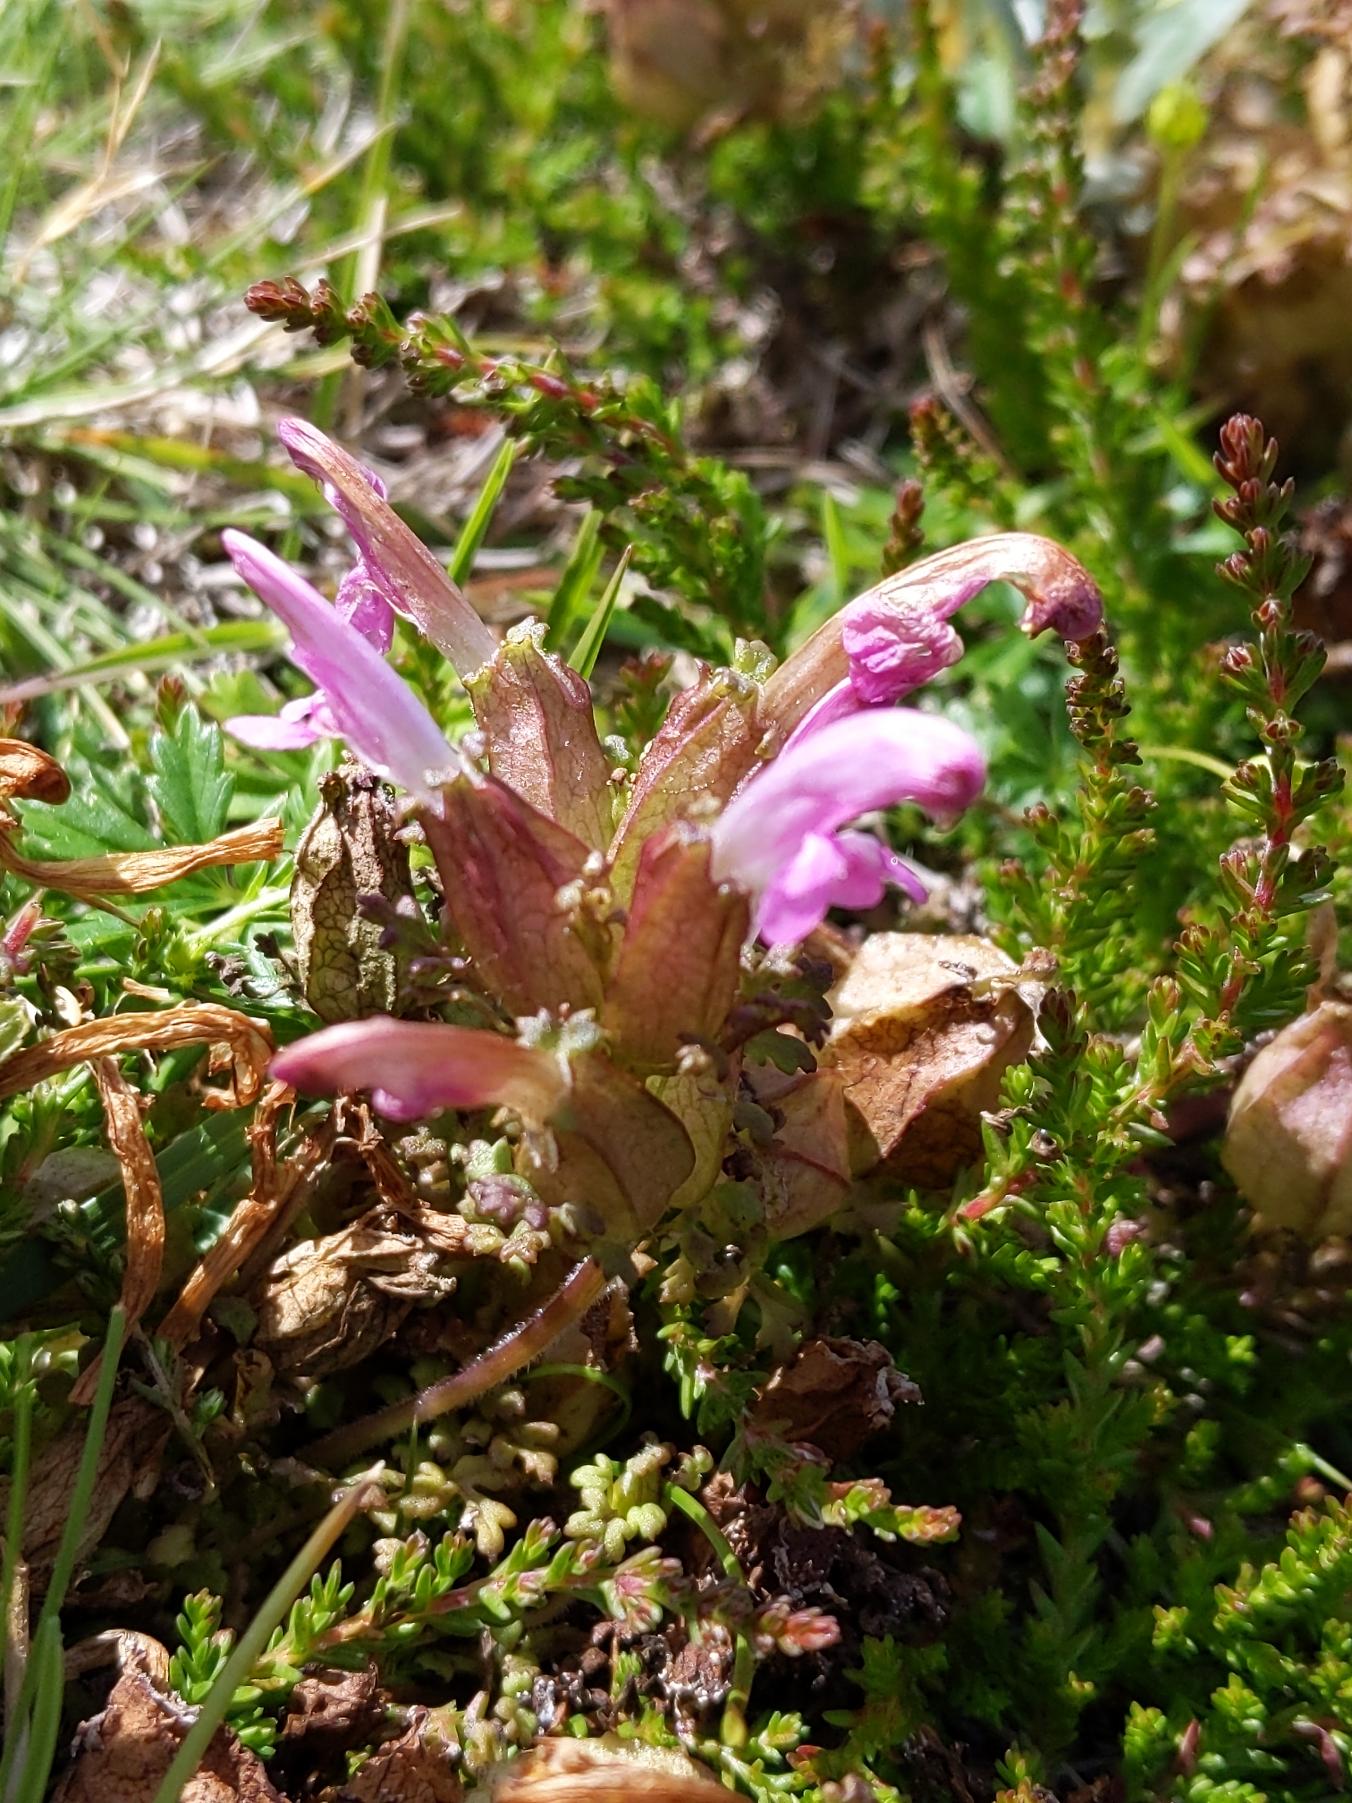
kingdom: Plantae
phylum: Tracheophyta
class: Magnoliopsida
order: Lamiales
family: Orobanchaceae
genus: Pedicularis
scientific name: Pedicularis sylvatica
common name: Mose-troldurt
